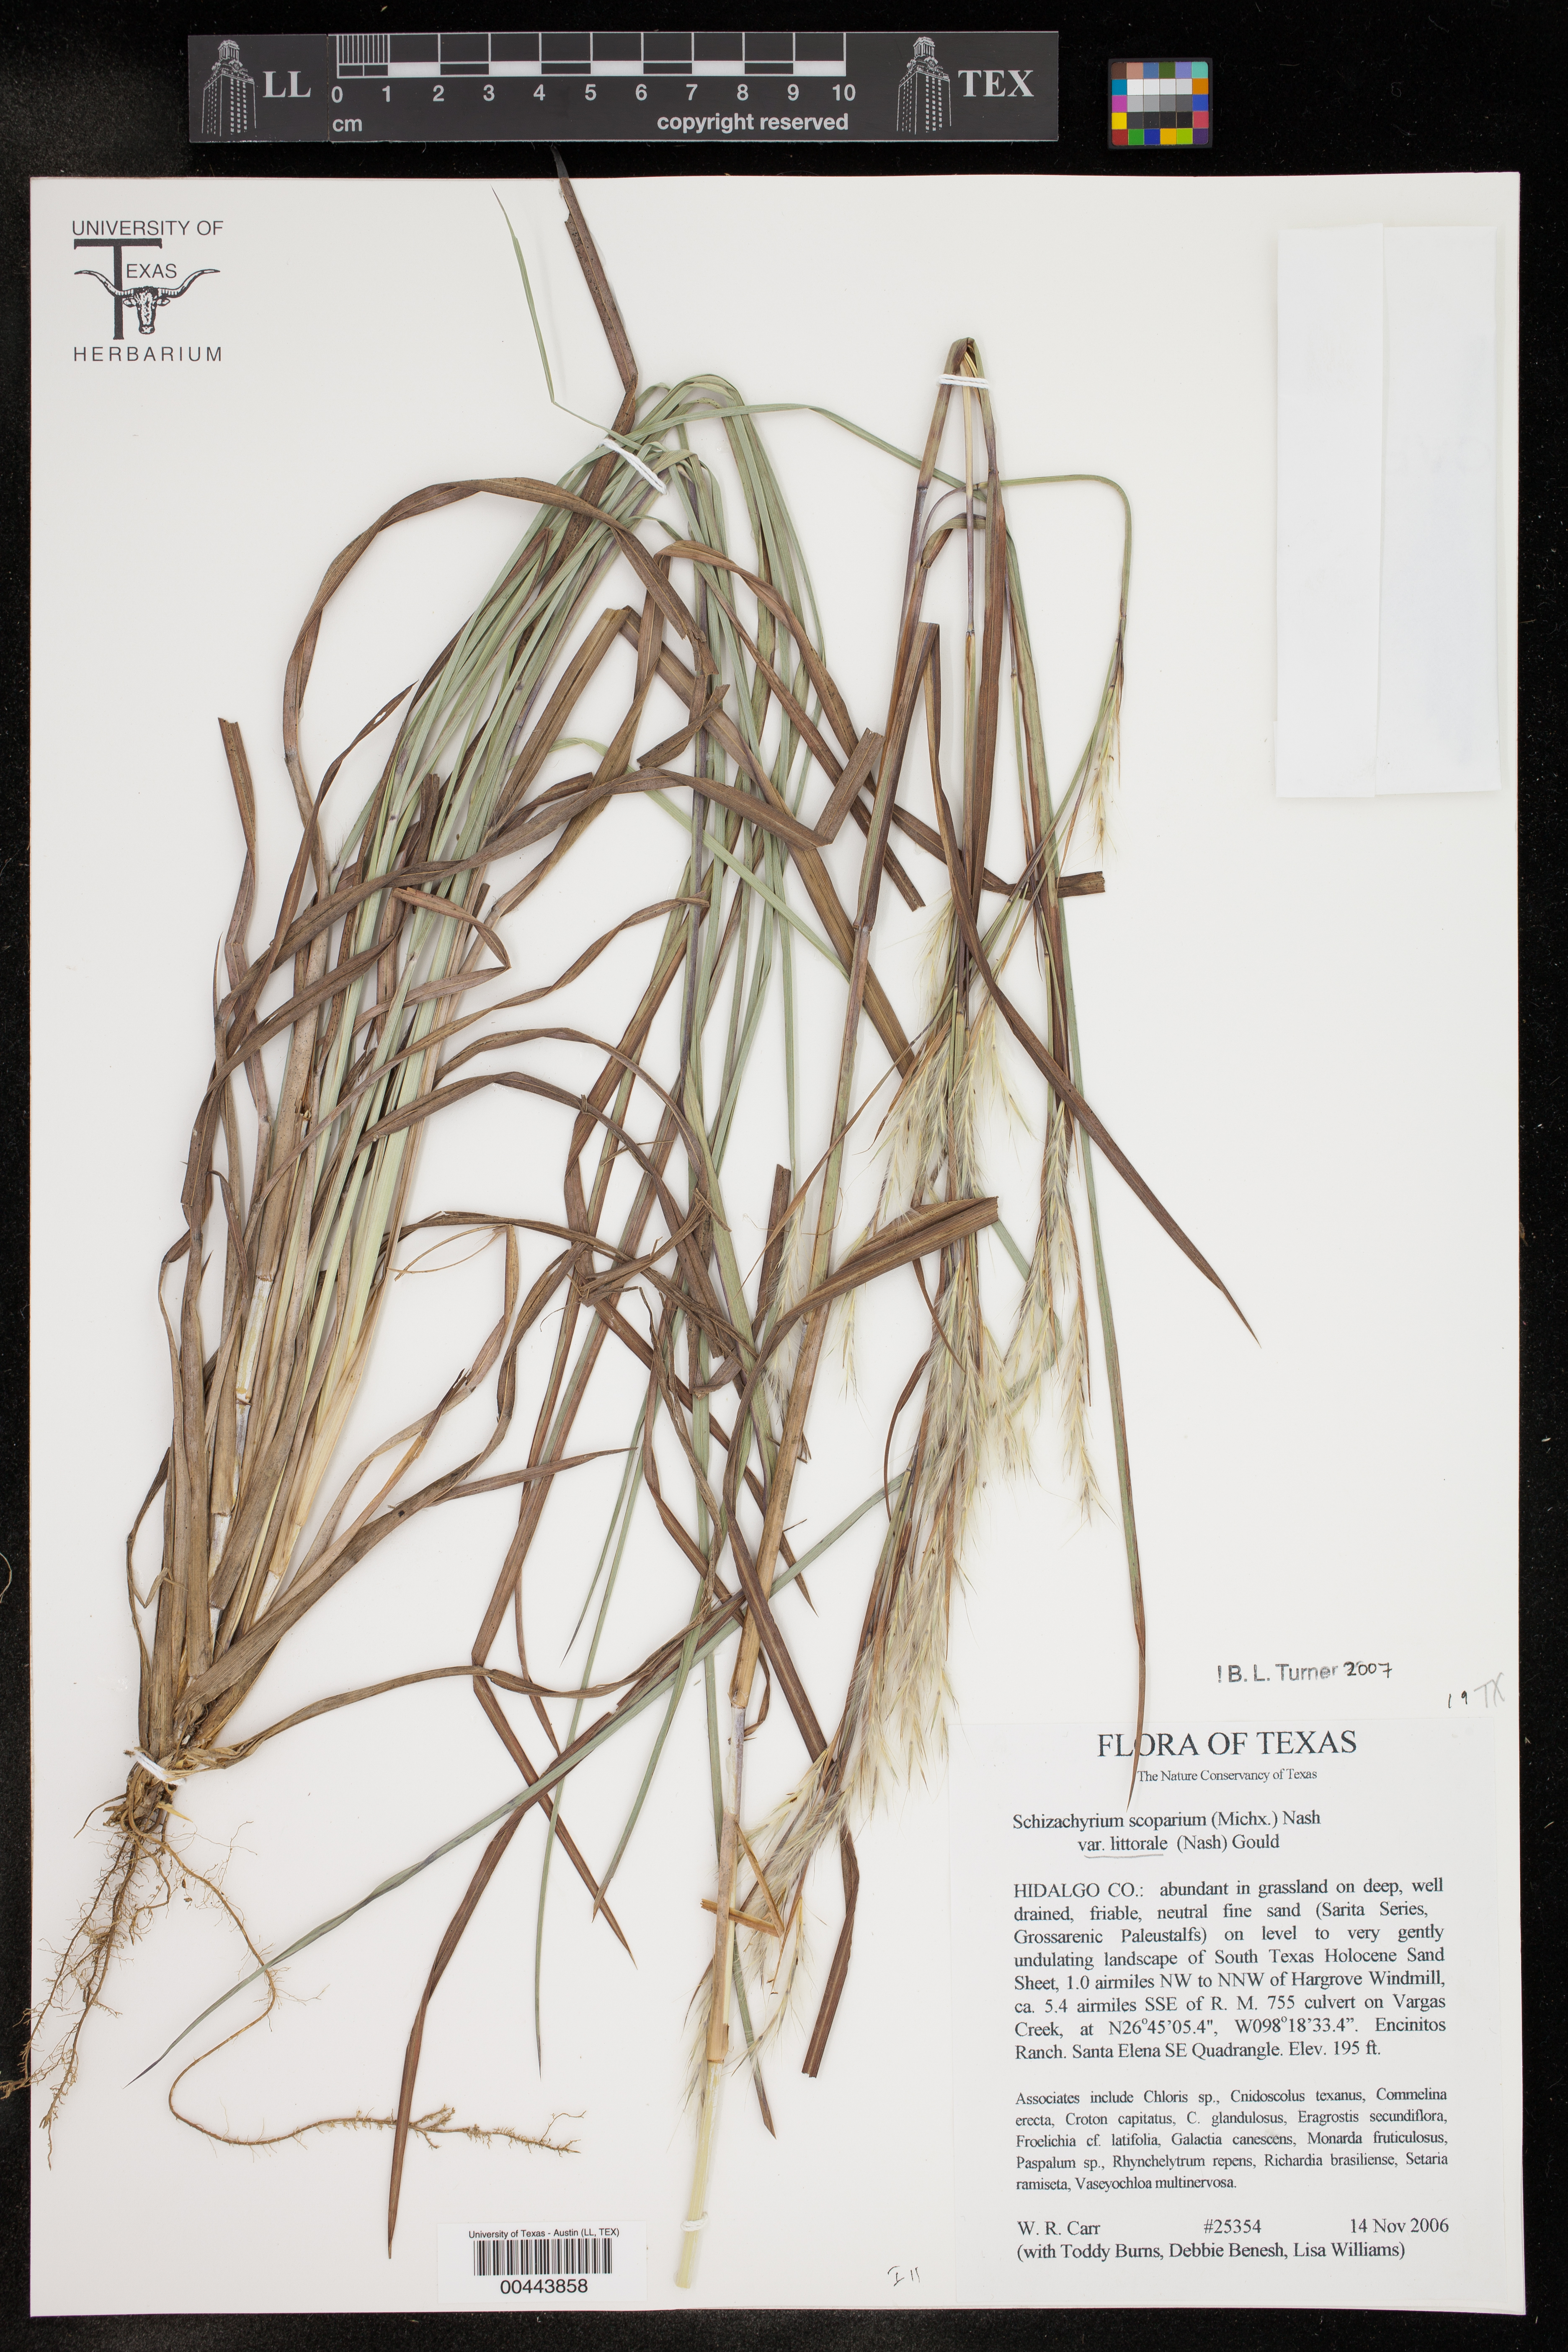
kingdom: Plantae
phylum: Tracheophyta
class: Liliopsida
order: Poales
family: Poaceae
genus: Schizachyrium
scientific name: Schizachyrium scoparium
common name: Little bluestem
